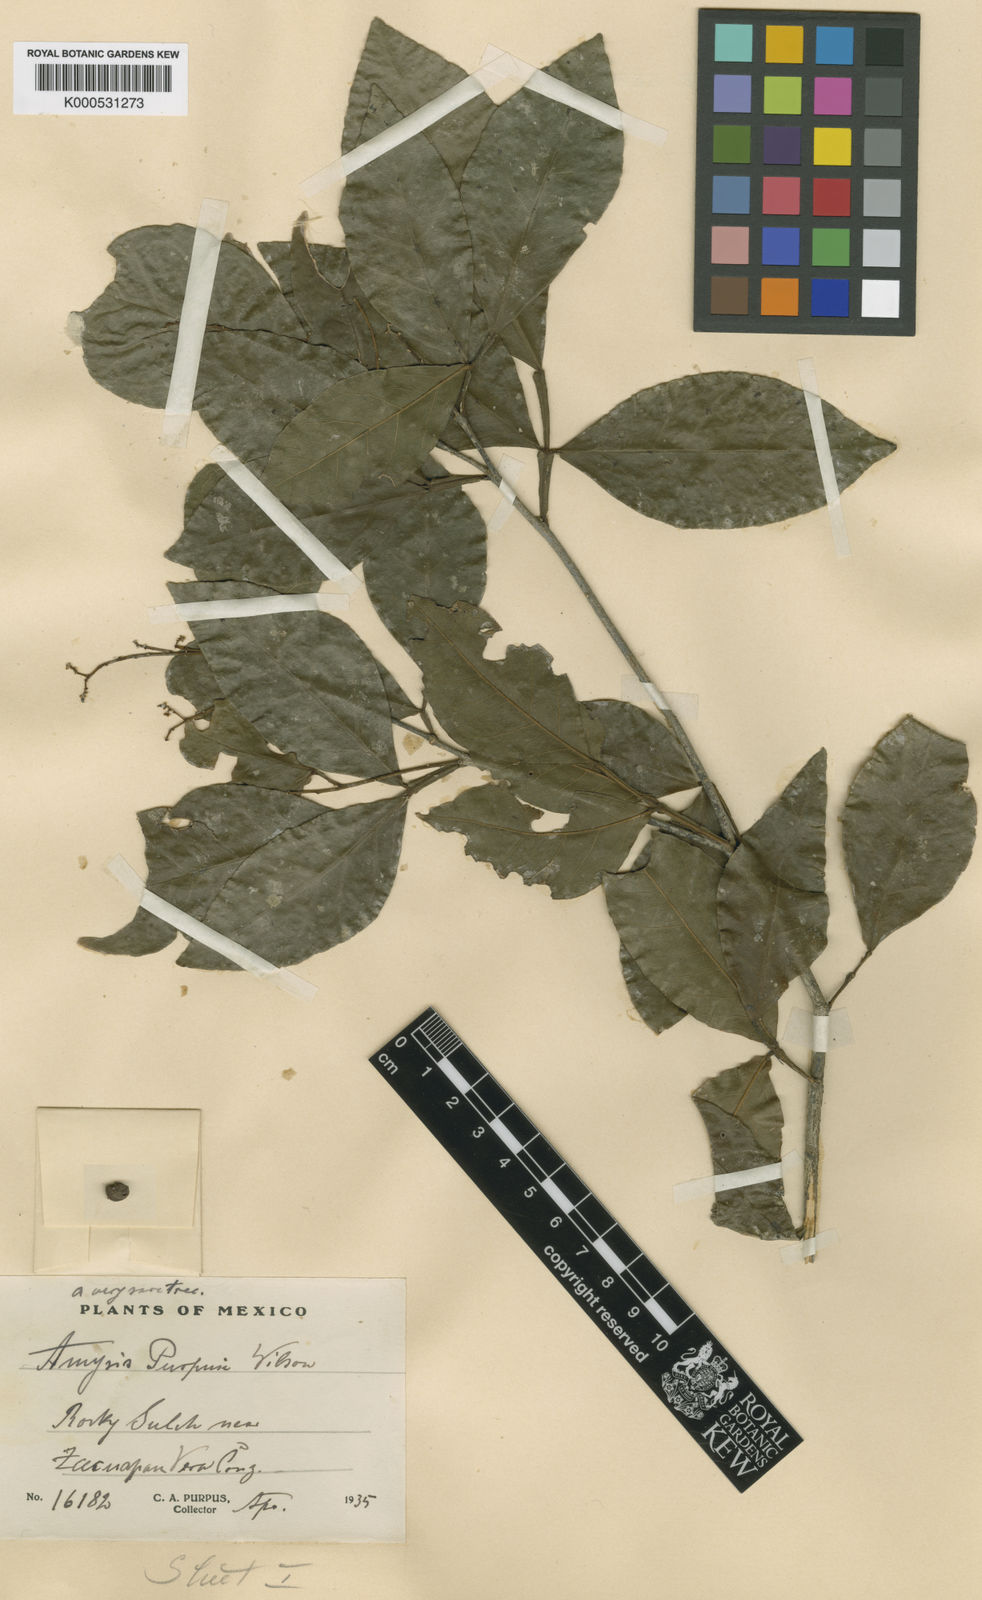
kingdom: Plantae
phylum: Tracheophyta
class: Magnoliopsida
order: Sapindales
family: Rutaceae
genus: Amyris
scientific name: Amyris purpusii
